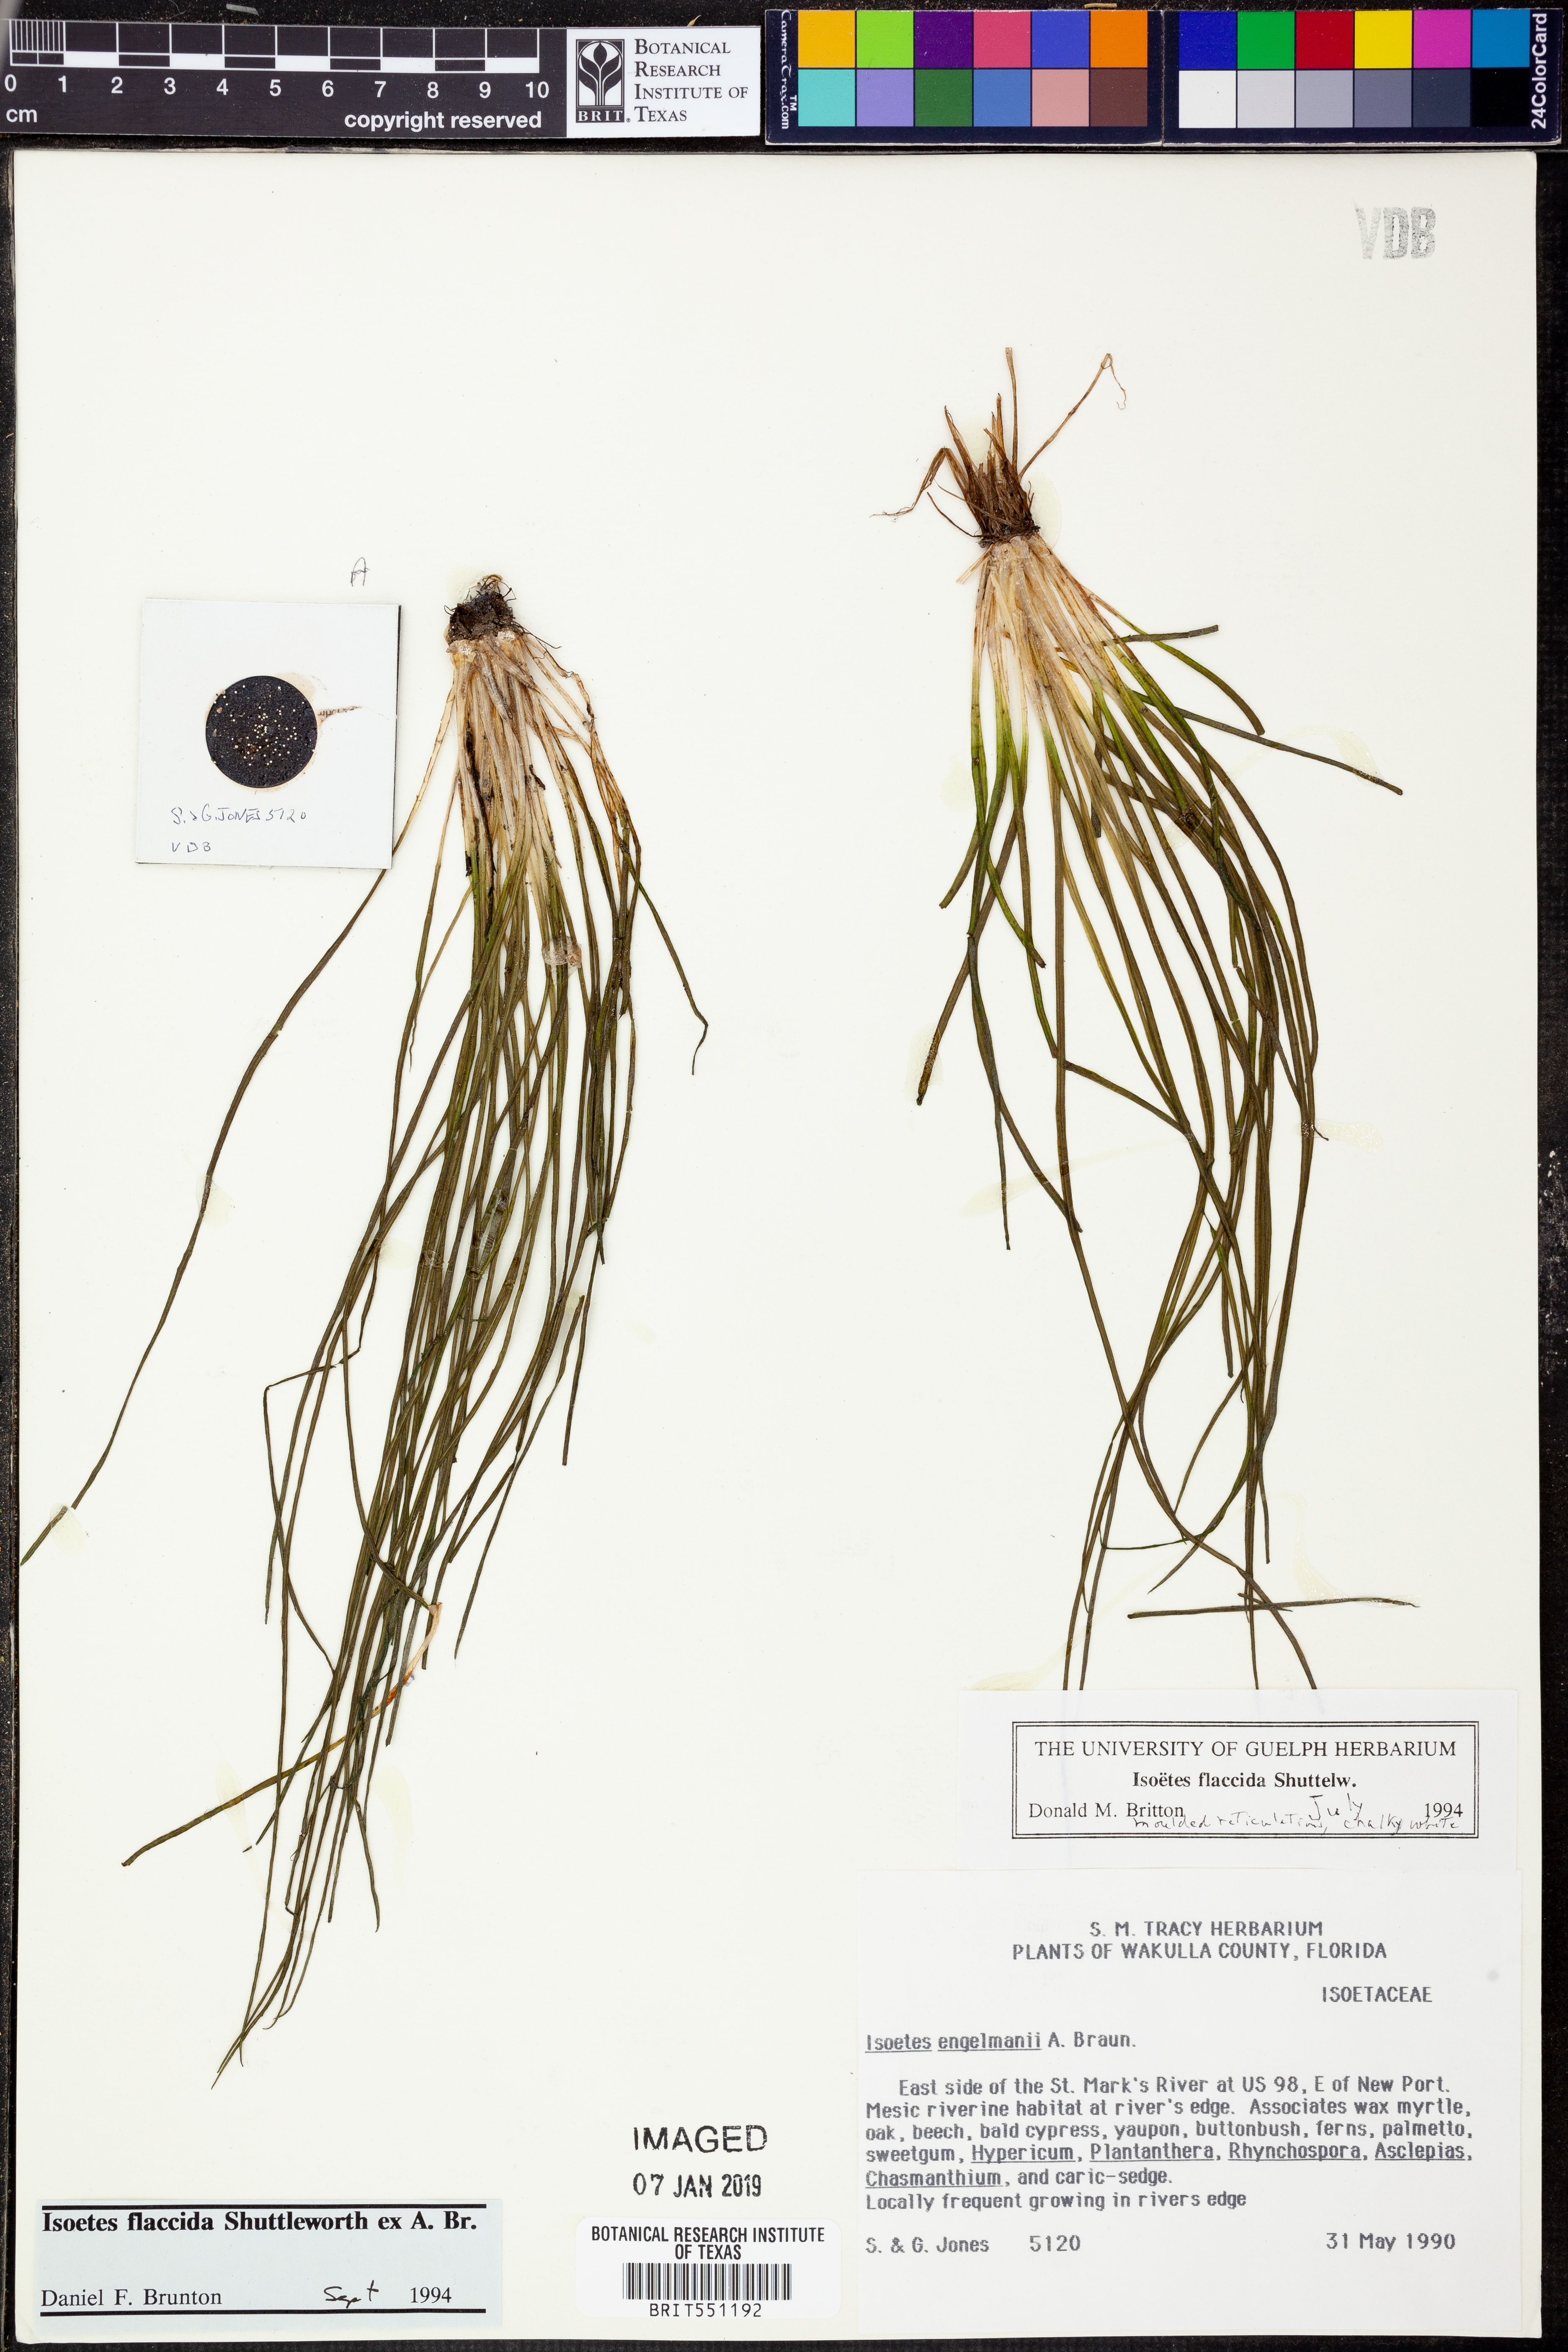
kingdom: Plantae
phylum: Tracheophyta
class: Lycopodiopsida
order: Isoetales
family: Isoetaceae
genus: Isoetes
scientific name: Isoetes flaccida
